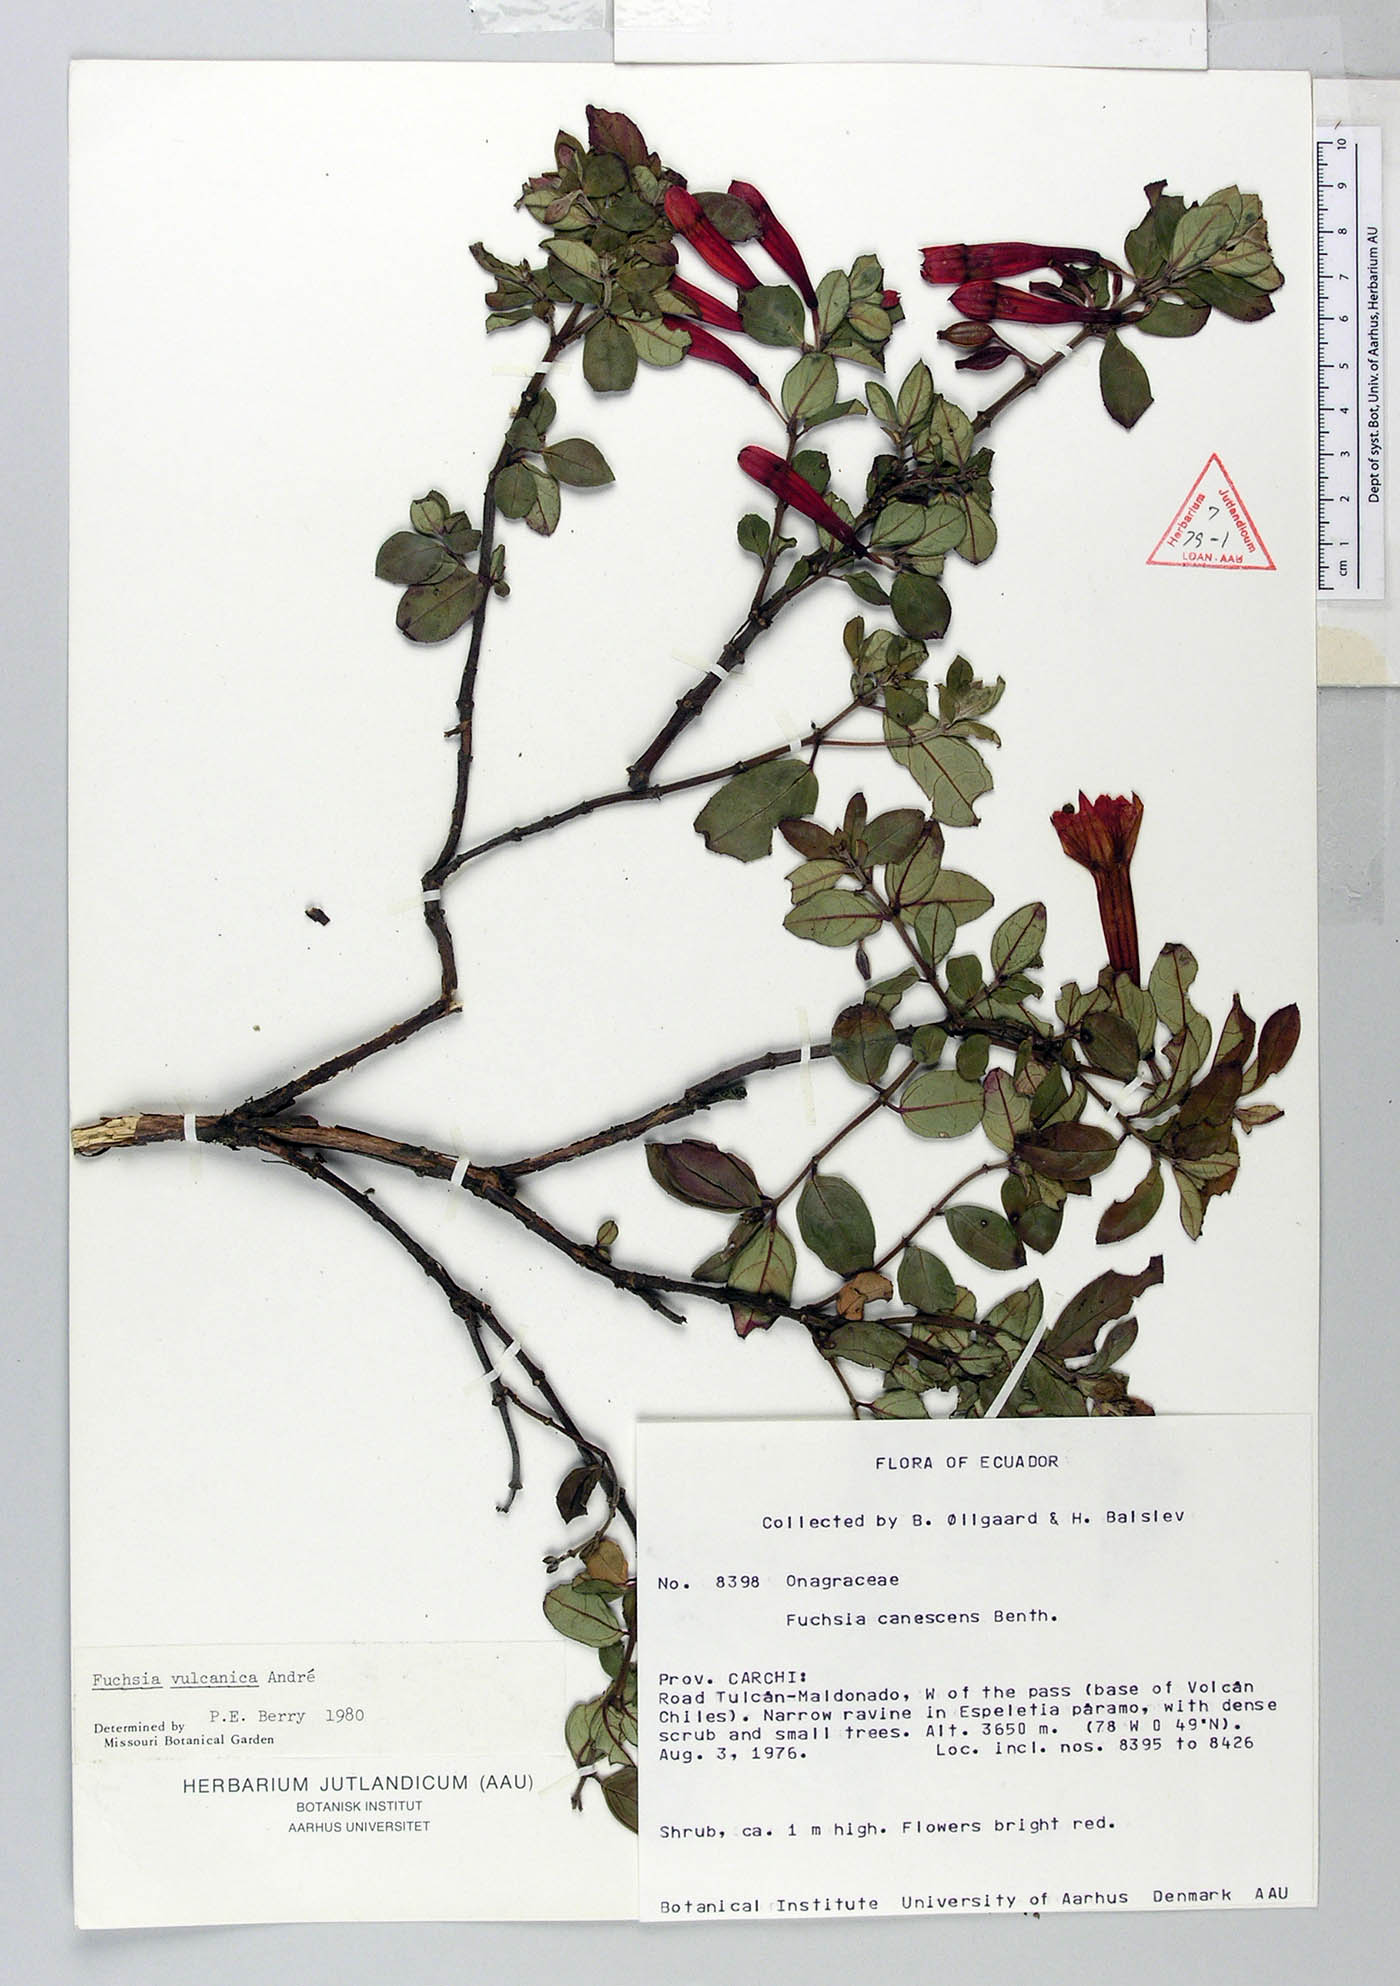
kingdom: Plantae
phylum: Tracheophyta
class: Magnoliopsida
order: Myrtales
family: Onagraceae
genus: Fuchsia
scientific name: Fuchsia vulcanica
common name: Volcan's fuchsia
